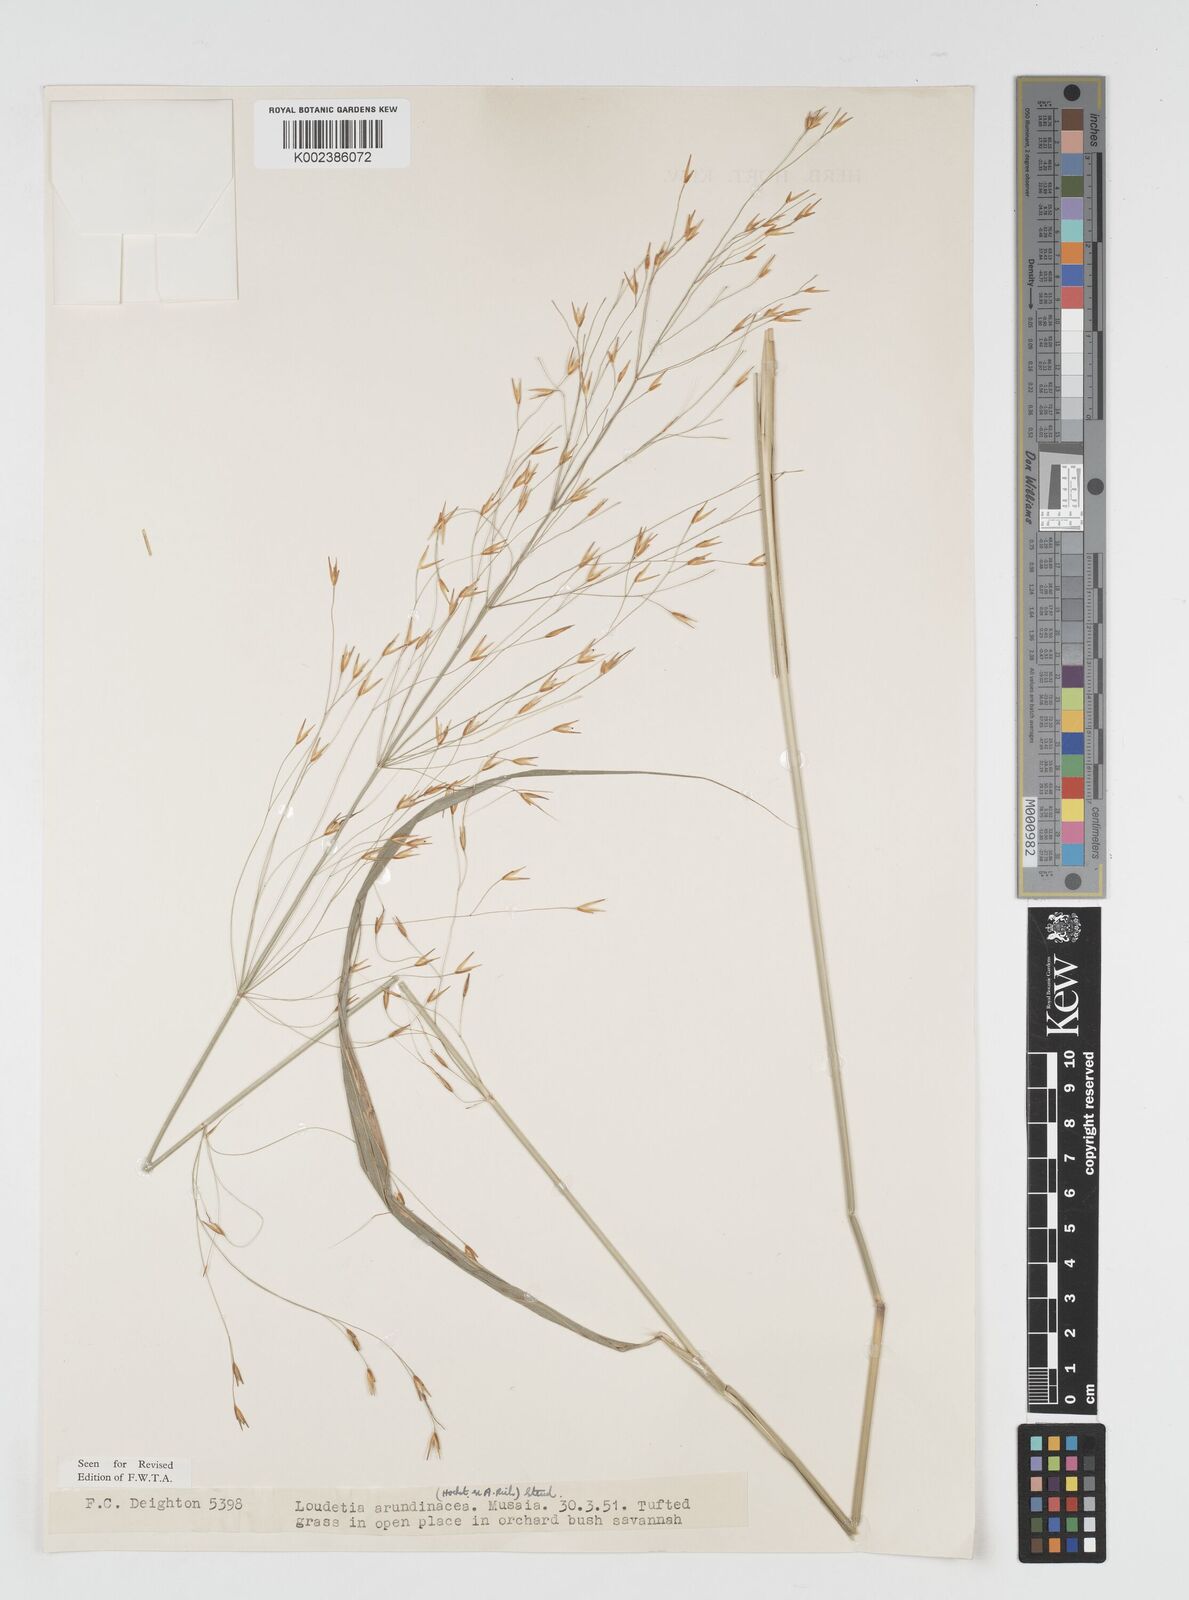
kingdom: Plantae
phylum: Tracheophyta
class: Liliopsida
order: Poales
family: Poaceae
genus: Loudetia
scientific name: Loudetia arundinacea
